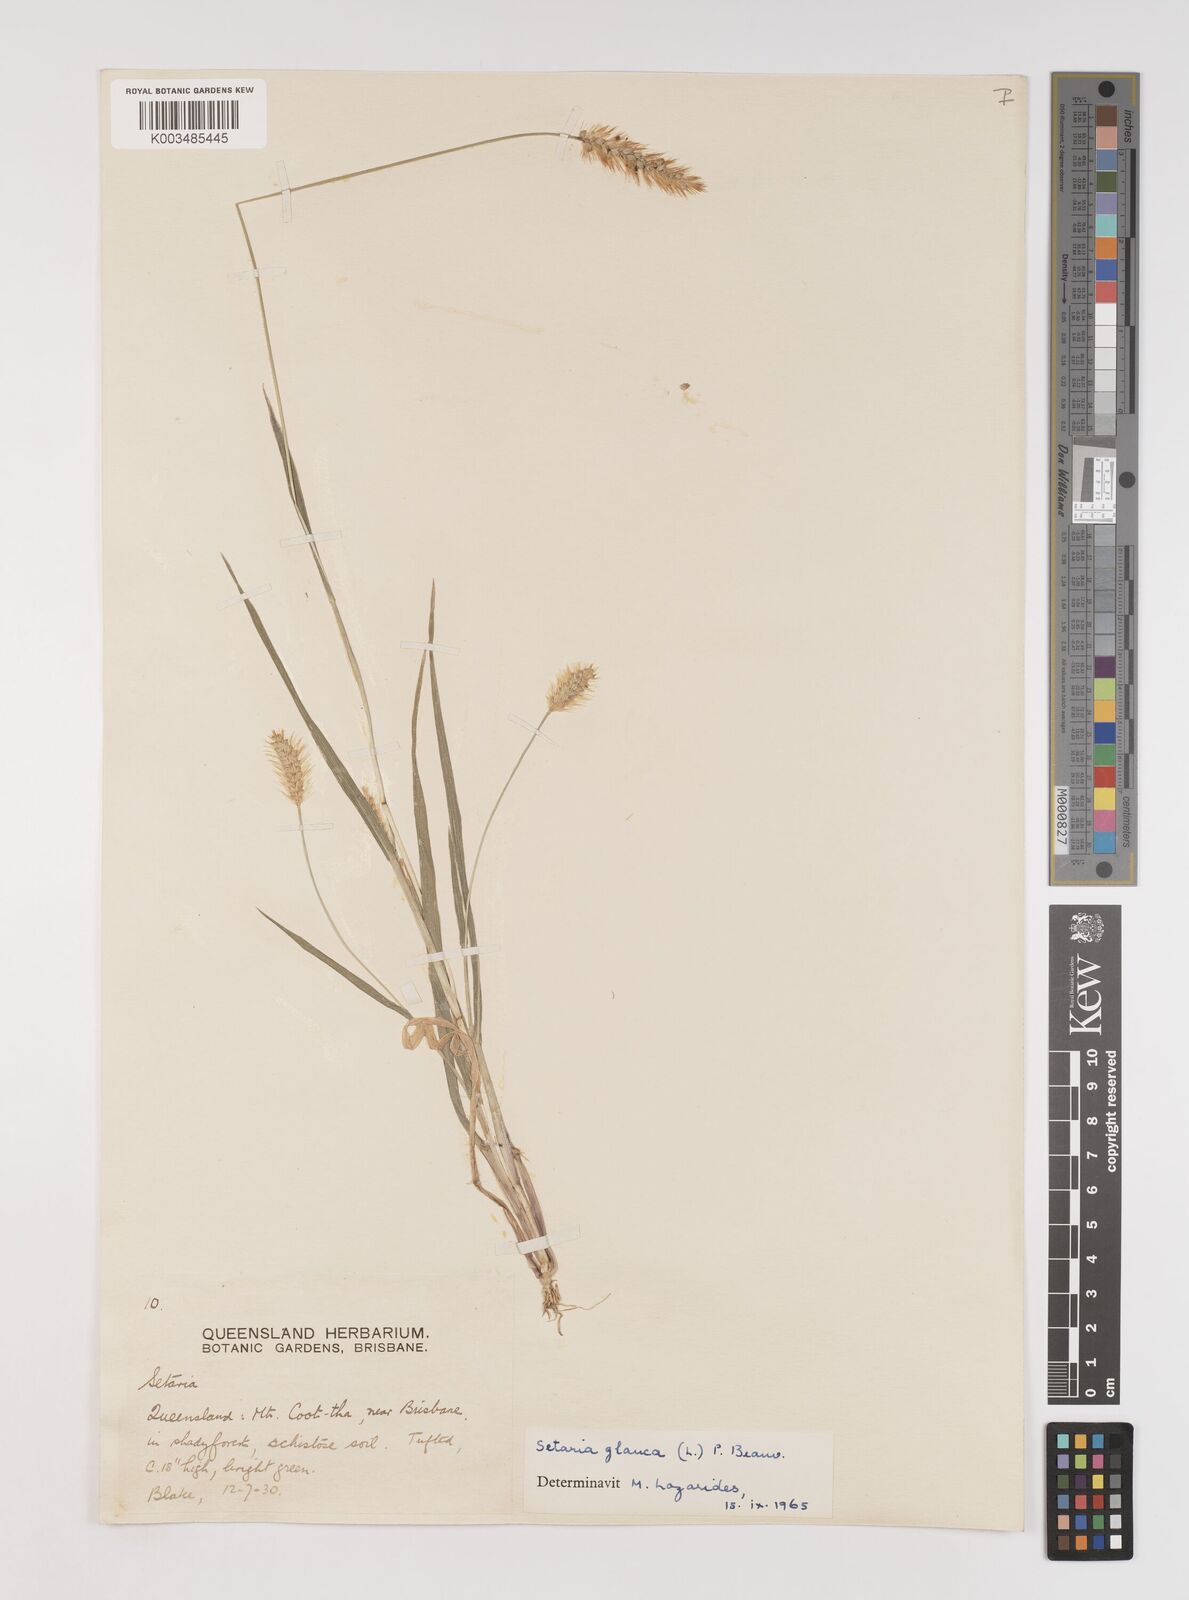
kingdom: Plantae
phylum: Tracheophyta
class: Liliopsida
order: Poales
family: Poaceae
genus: Setaria
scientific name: Setaria pumila
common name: Yellow bristle-grass
